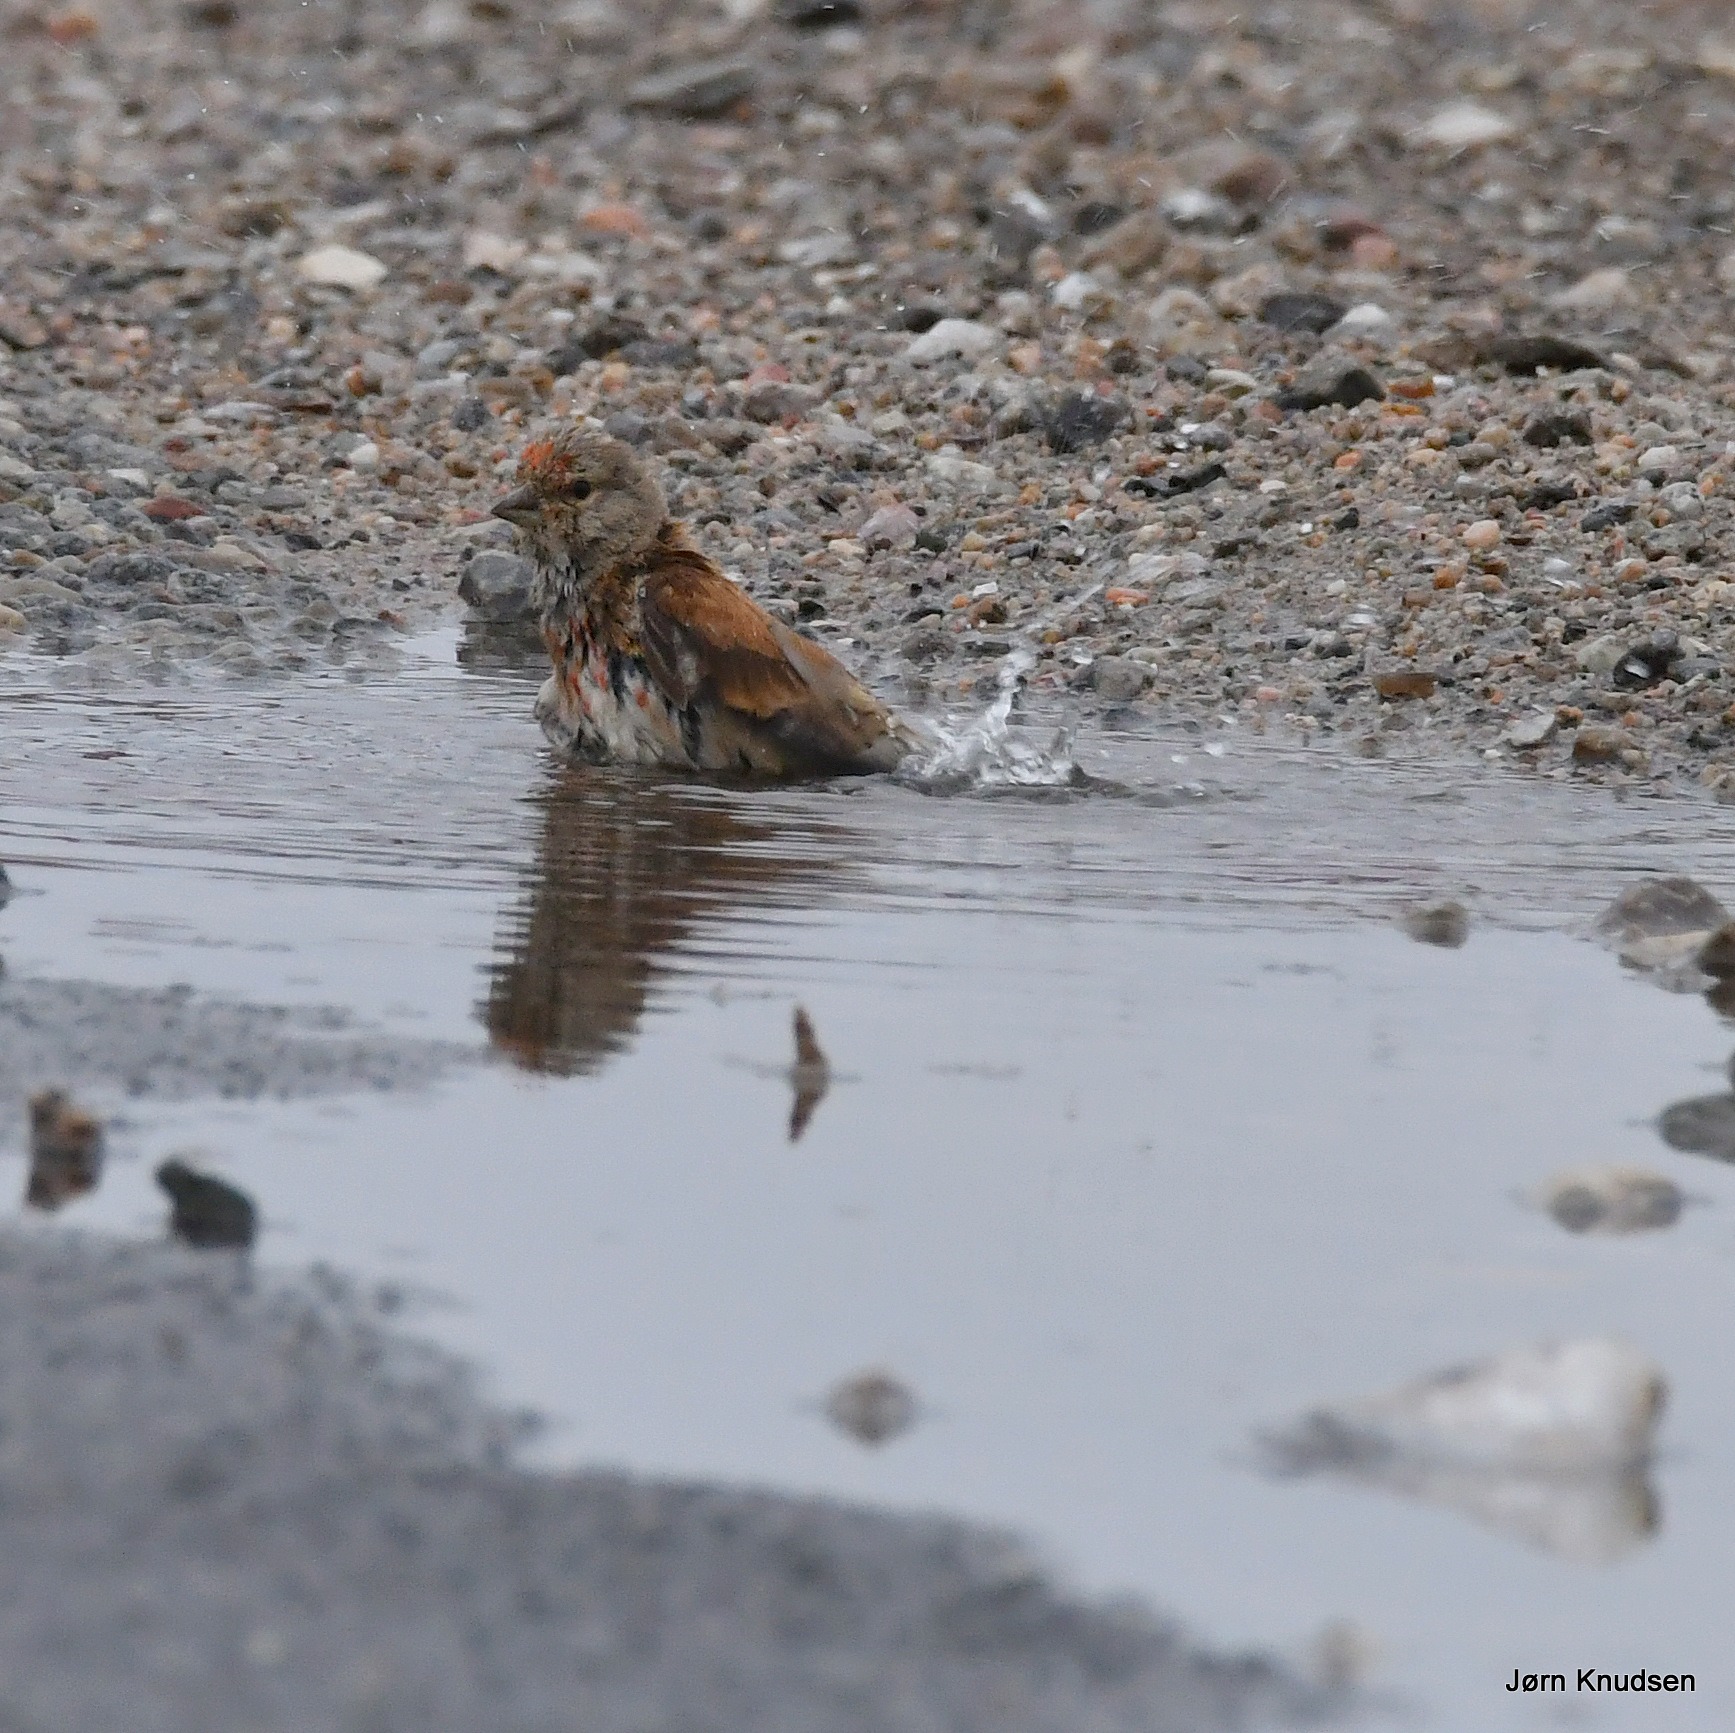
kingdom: Animalia
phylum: Chordata
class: Aves
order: Passeriformes
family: Fringillidae
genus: Linaria
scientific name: Linaria cannabina
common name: Tornirisk
